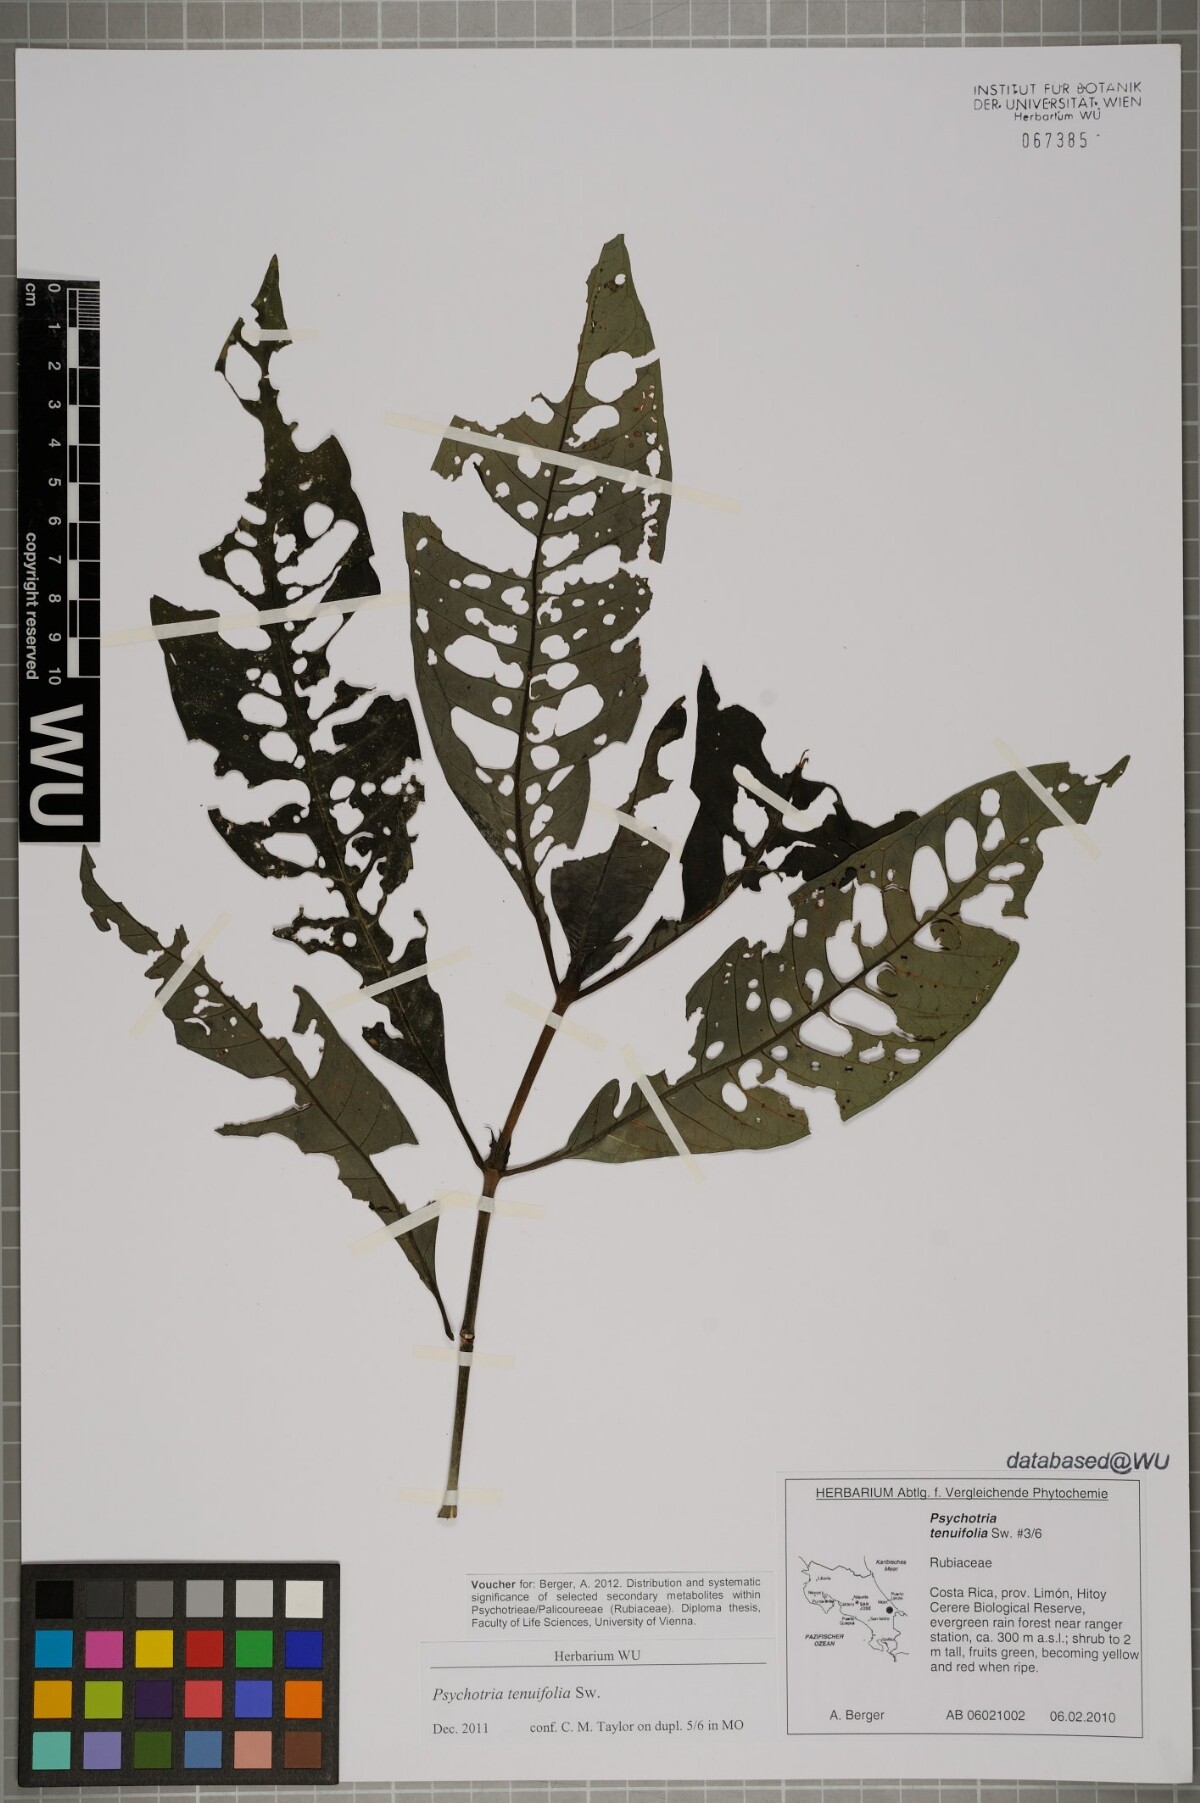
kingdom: Plantae
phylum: Tracheophyta
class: Magnoliopsida
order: Gentianales
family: Rubiaceae
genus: Psychotria
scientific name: Psychotria tenuifolia
